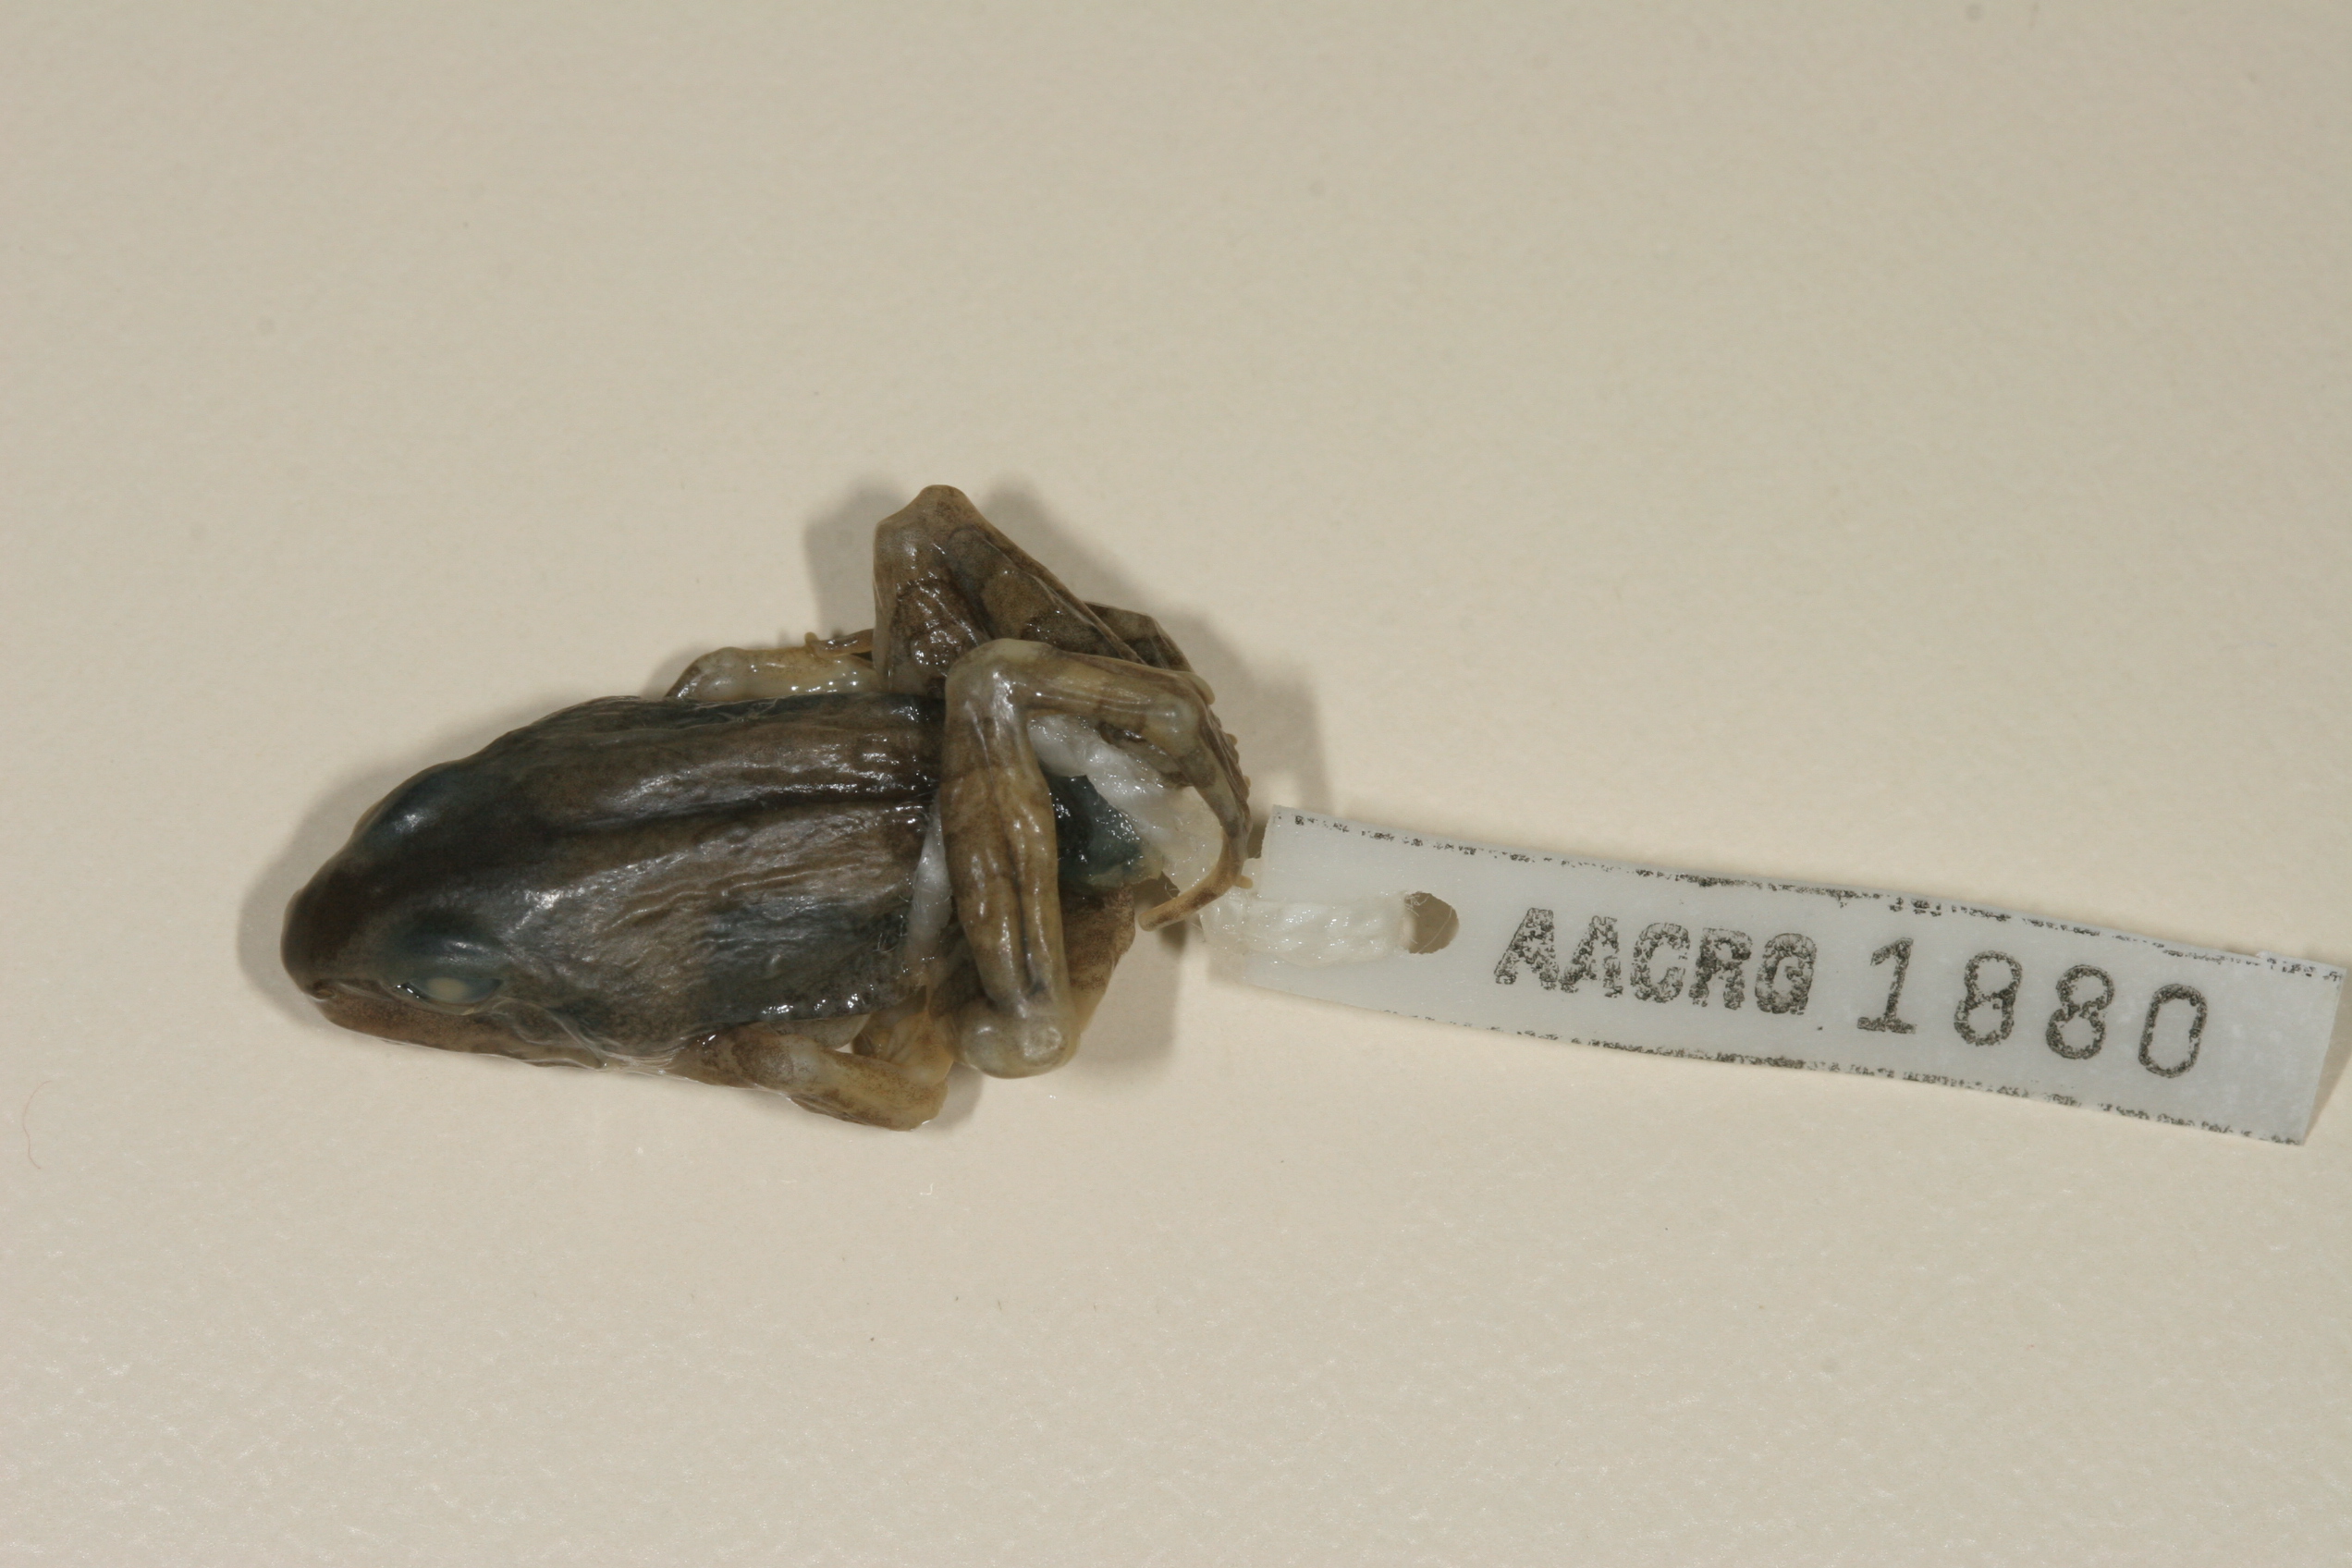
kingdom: Animalia
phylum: Chordata
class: Amphibia
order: Anura
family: Ptychadenidae
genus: Hildebrandtia
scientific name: Hildebrandtia ornata
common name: Ornate frog
